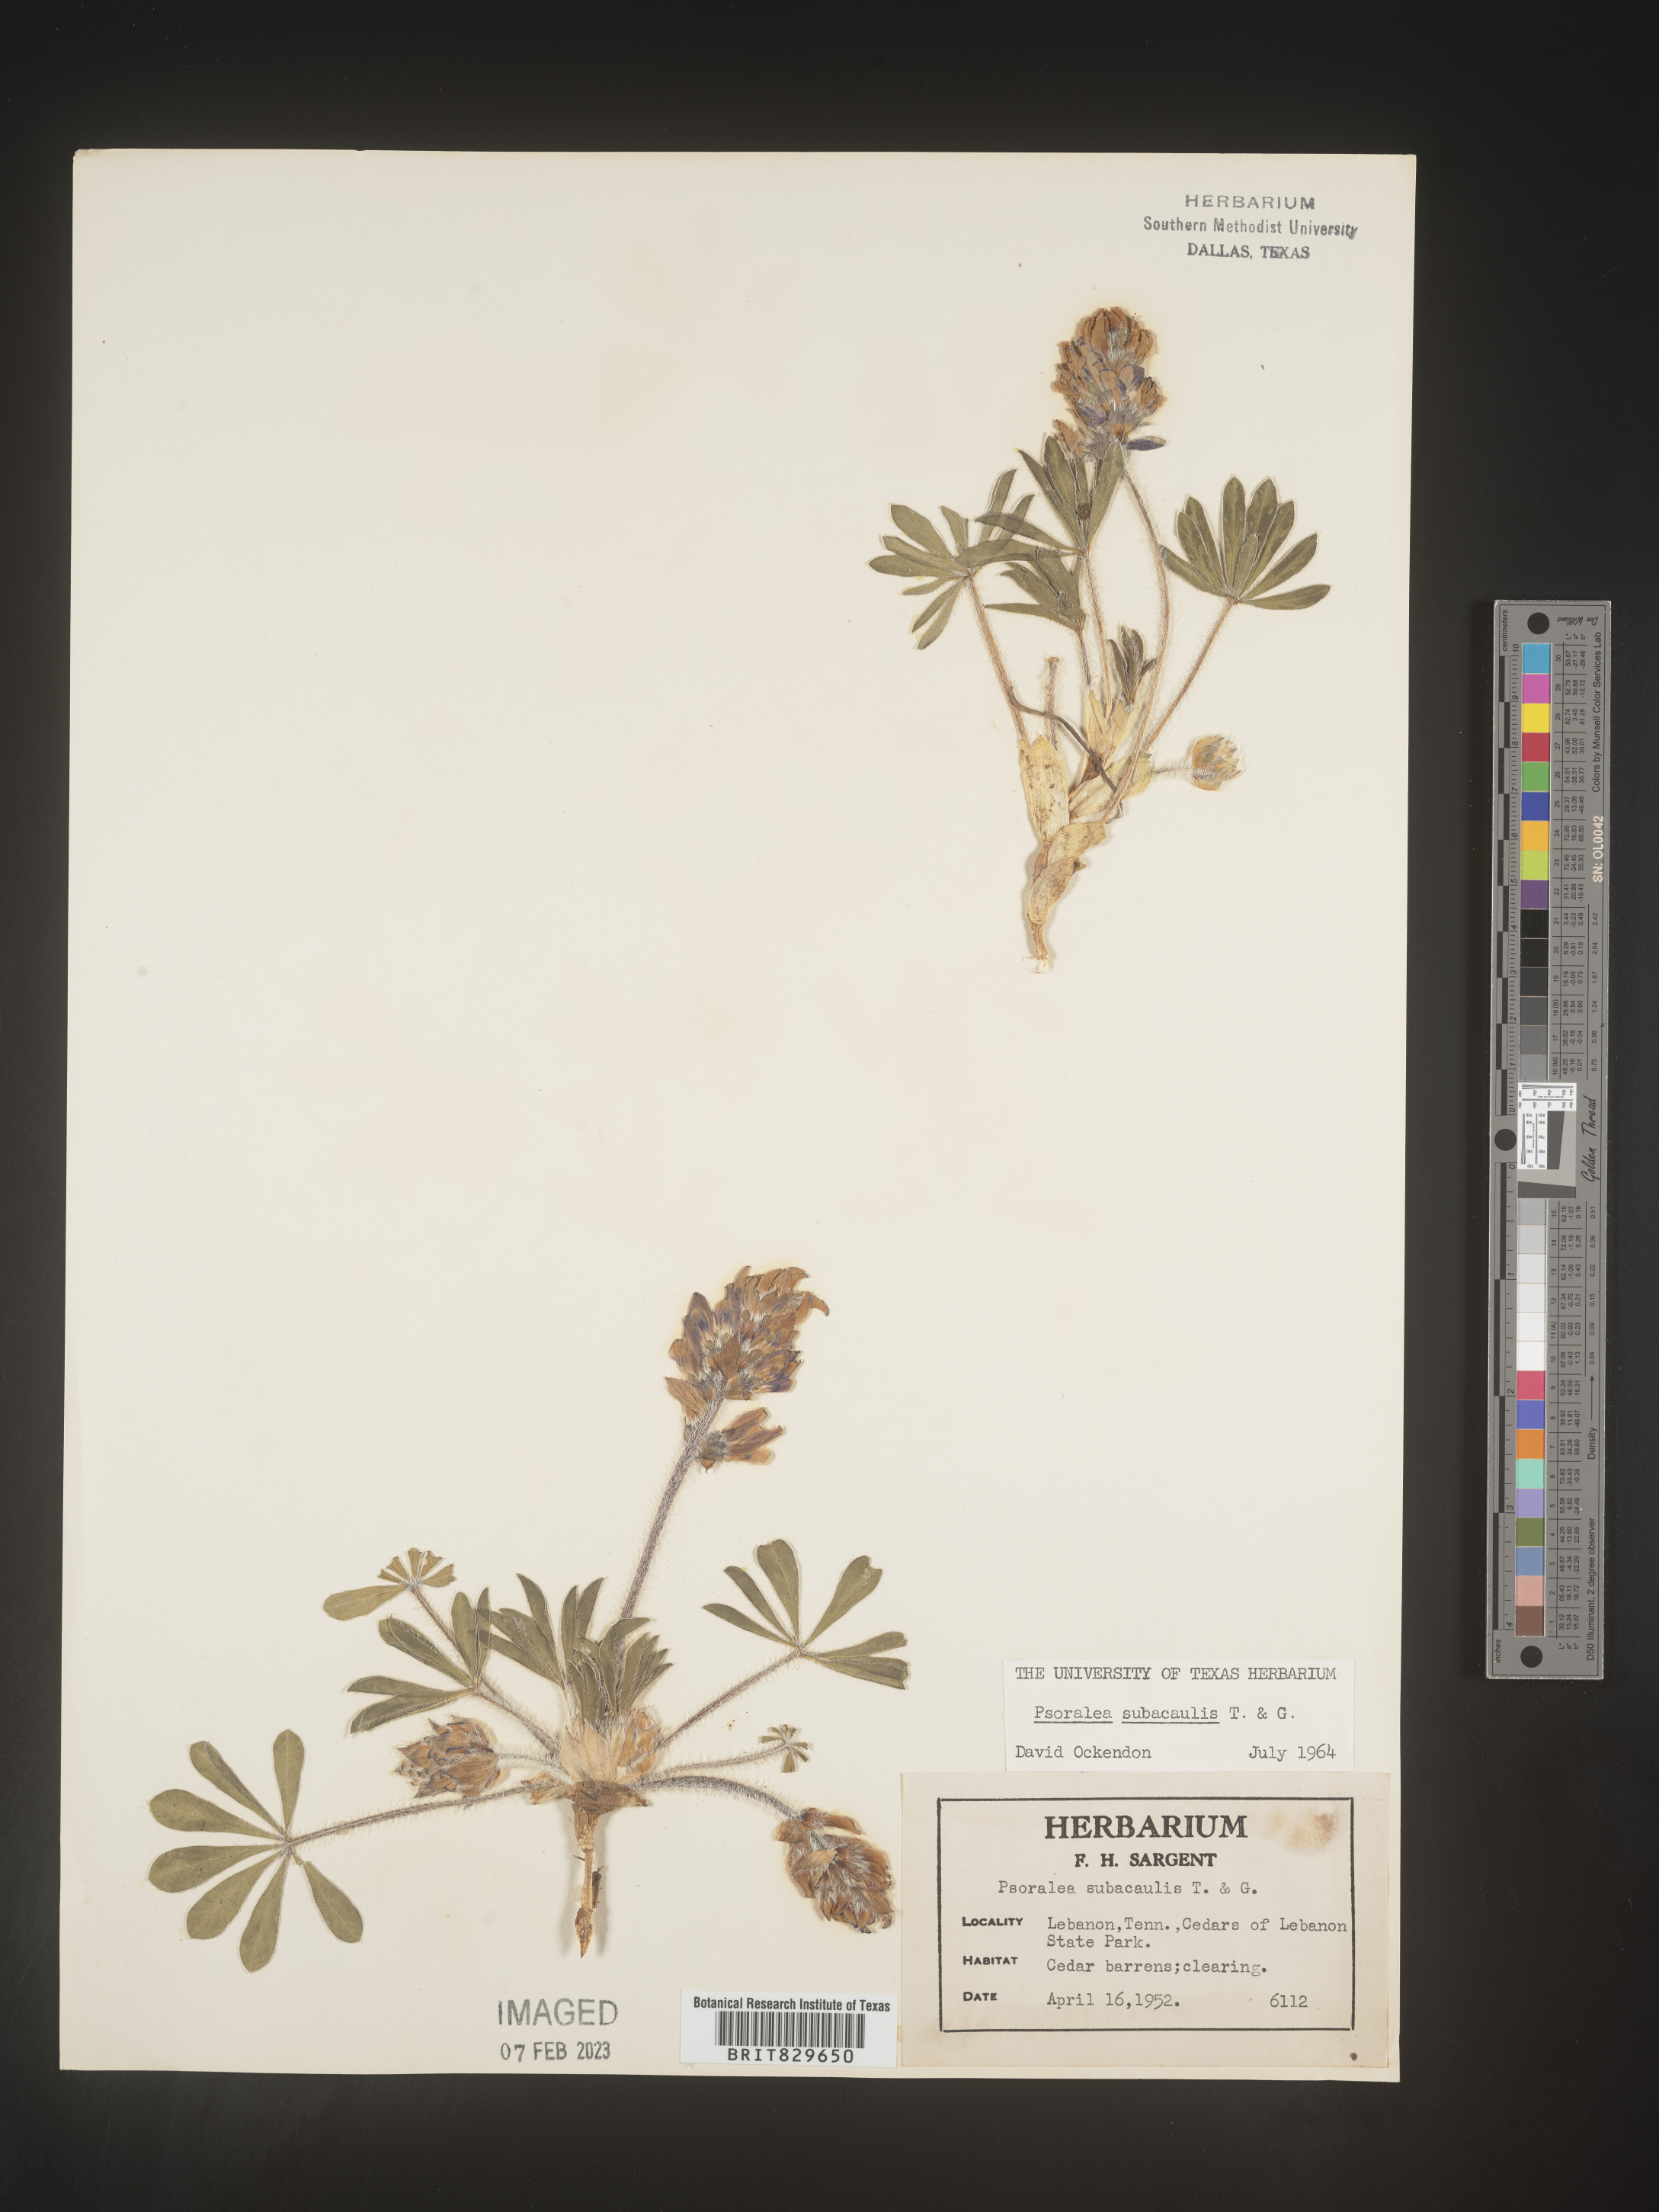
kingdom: Plantae
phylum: Tracheophyta
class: Magnoliopsida
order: Fabales
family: Fabaceae
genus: Psoralea
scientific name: Psoralea
